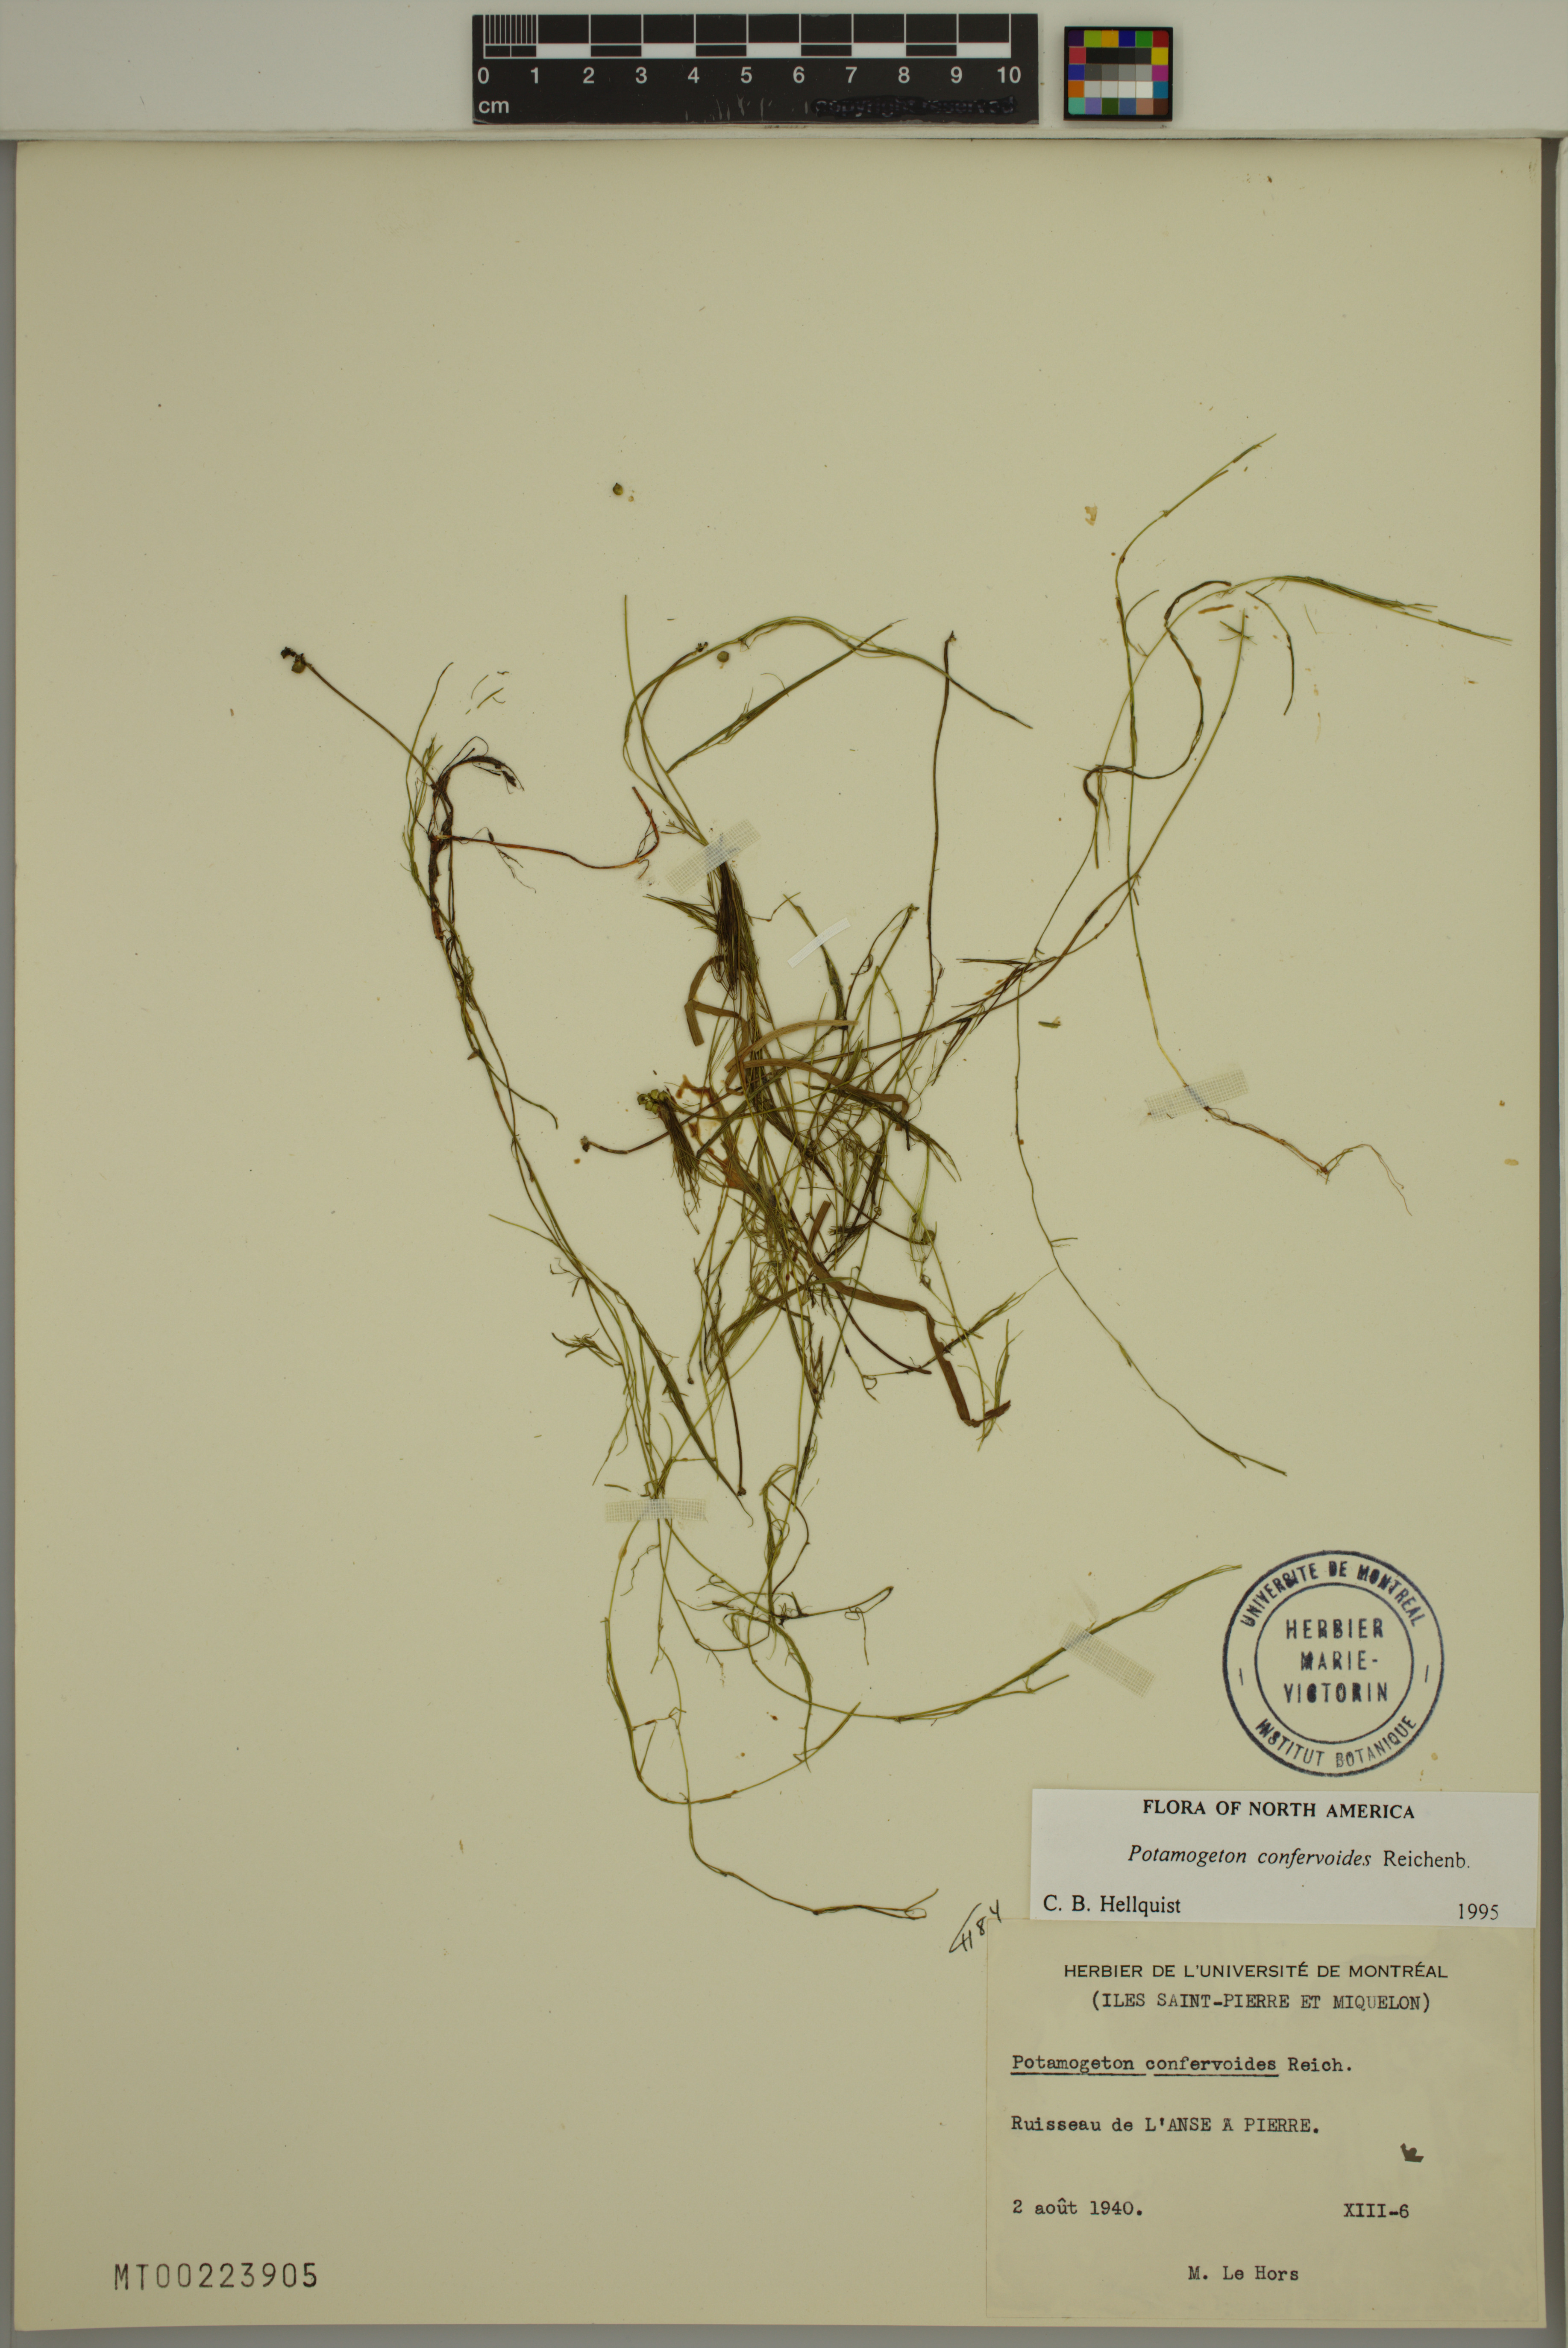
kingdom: Plantae
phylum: Tracheophyta
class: Liliopsida
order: Alismatales
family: Potamogetonaceae
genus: Potamogeton
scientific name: Potamogeton confervoides
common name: Alga pondweed
